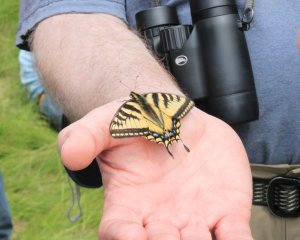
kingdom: Animalia
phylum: Arthropoda
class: Insecta
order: Lepidoptera
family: Papilionidae
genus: Pterourus
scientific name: Pterourus canadensis
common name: Canadian Tiger Swallowtail
